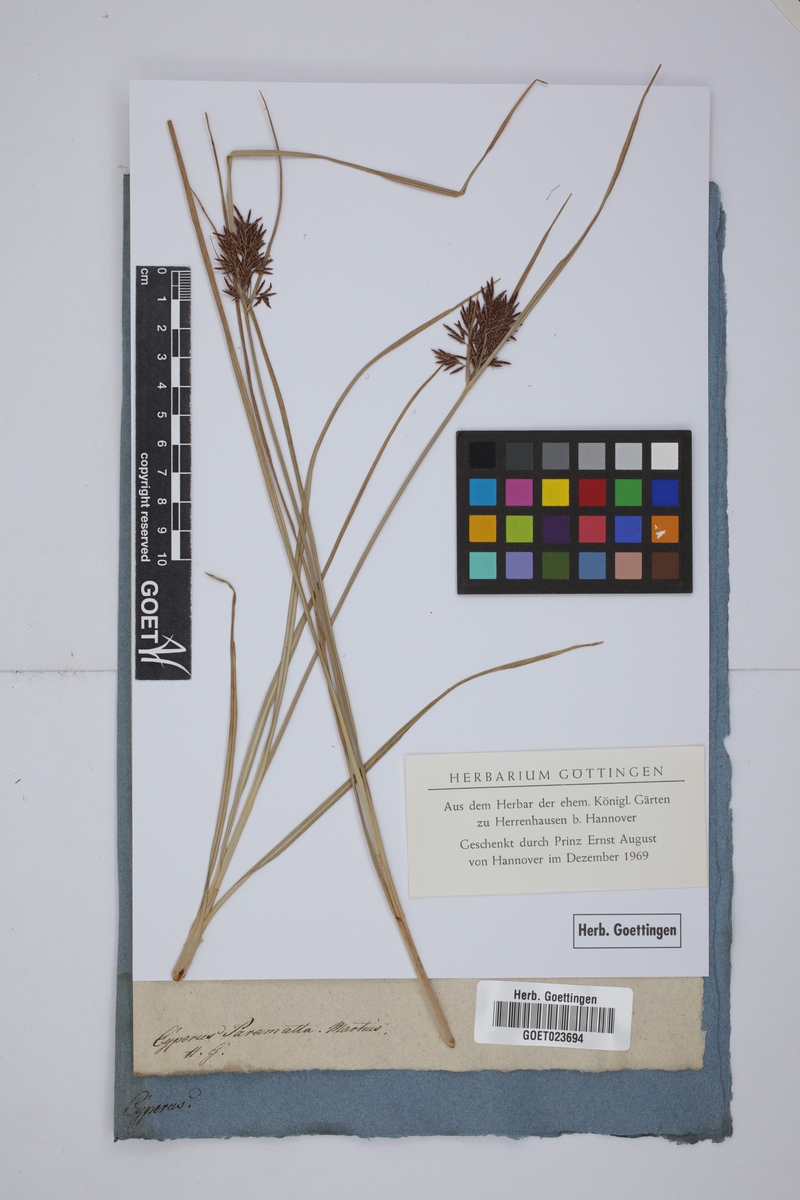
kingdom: Plantae
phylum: Tracheophyta
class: Liliopsida
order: Poales
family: Cyperaceae
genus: Cyperus
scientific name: Cyperus congestus
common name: Dense flat sedge
